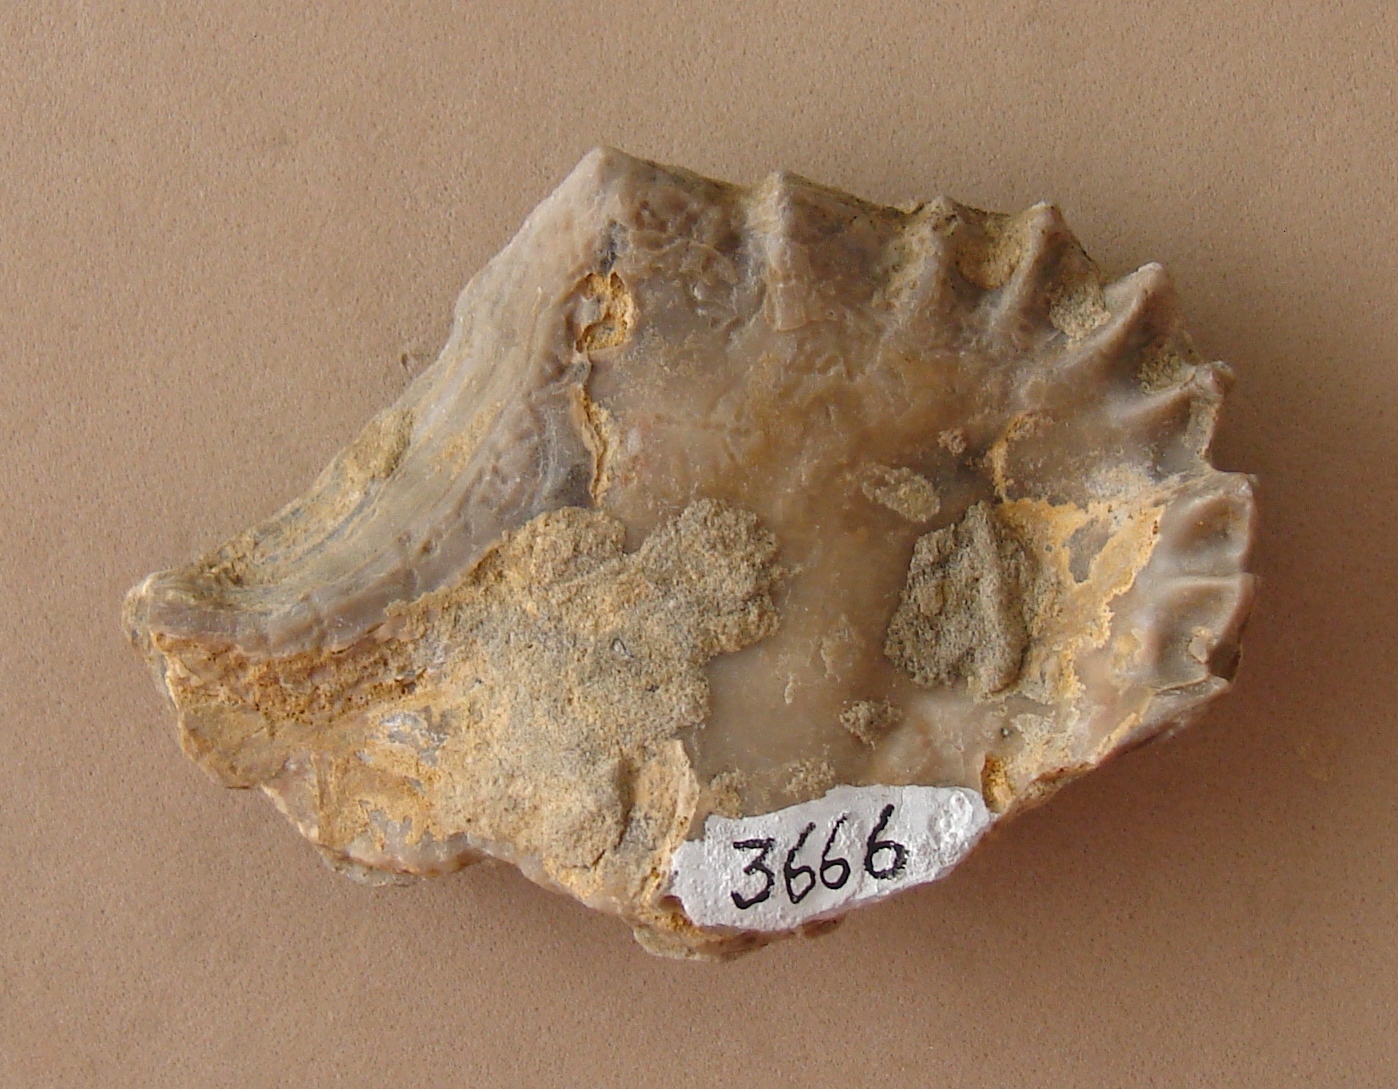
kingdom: Animalia
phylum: Mollusca
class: Bivalvia
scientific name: Bivalvia
